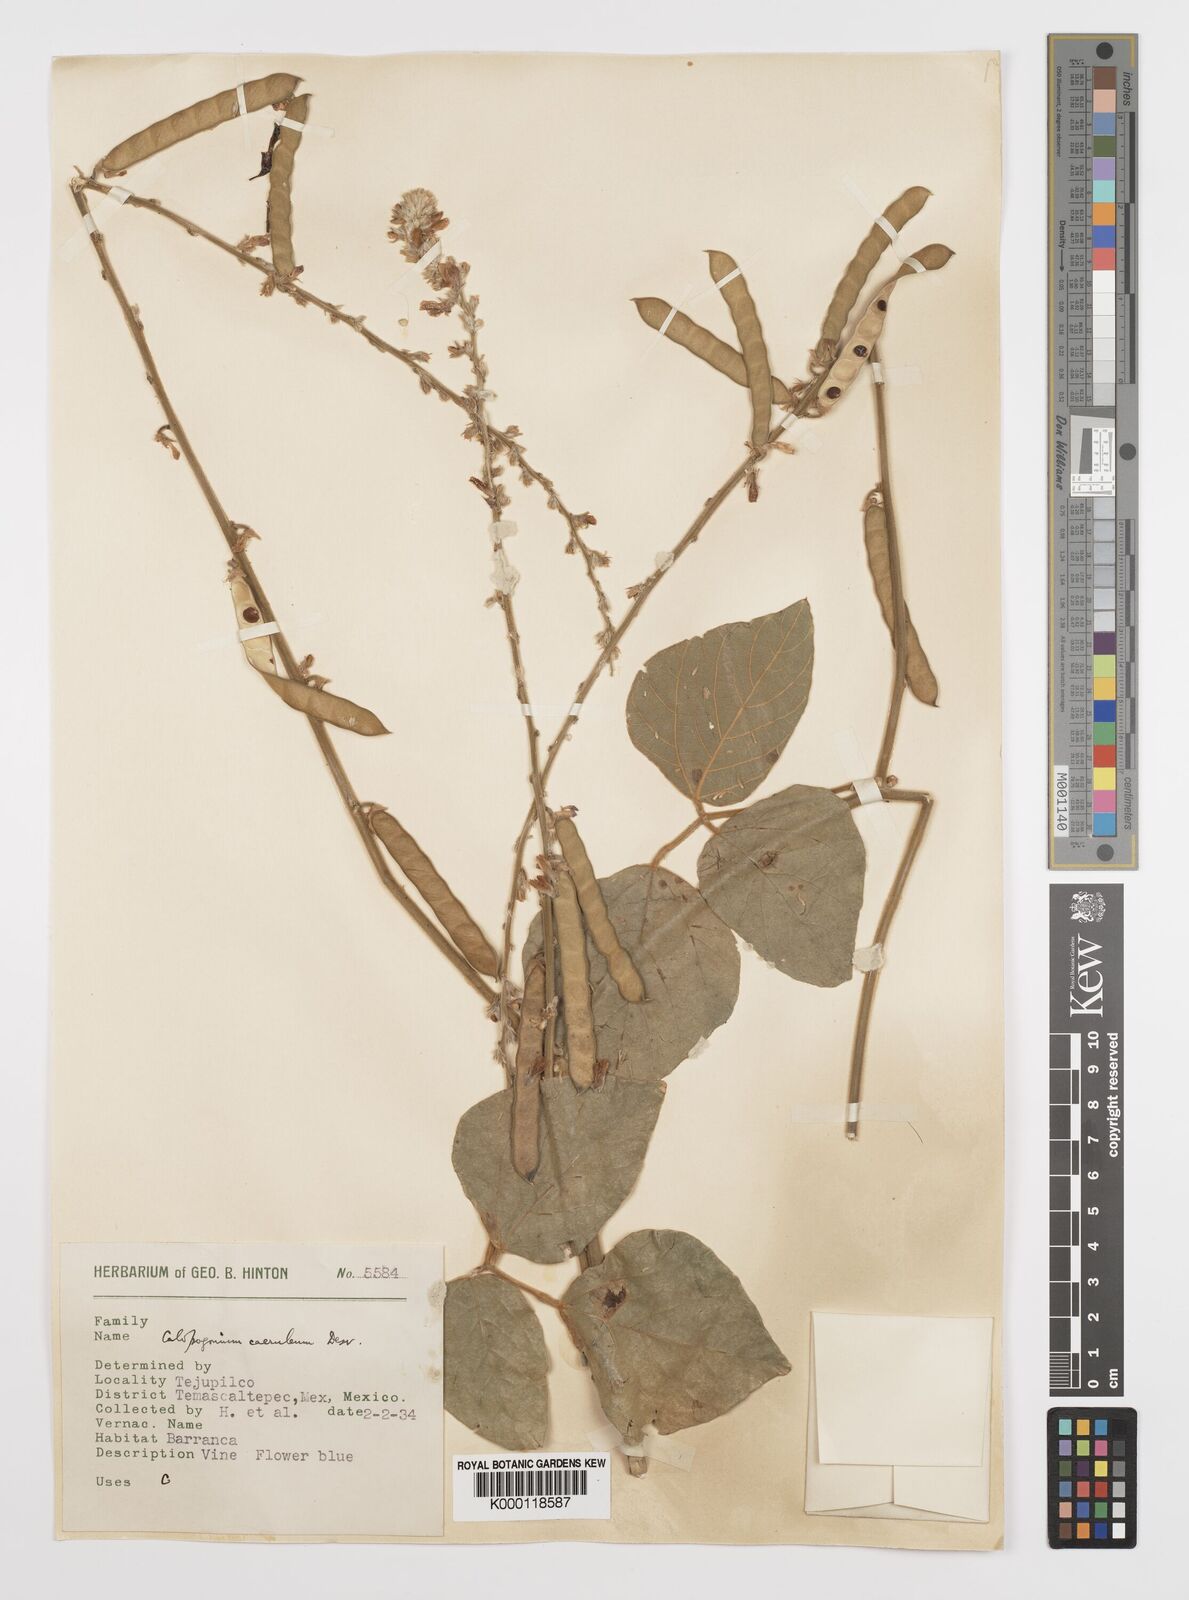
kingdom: Plantae
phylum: Tracheophyta
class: Magnoliopsida
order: Fabales
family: Fabaceae
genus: Calopogonium
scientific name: Calopogonium
